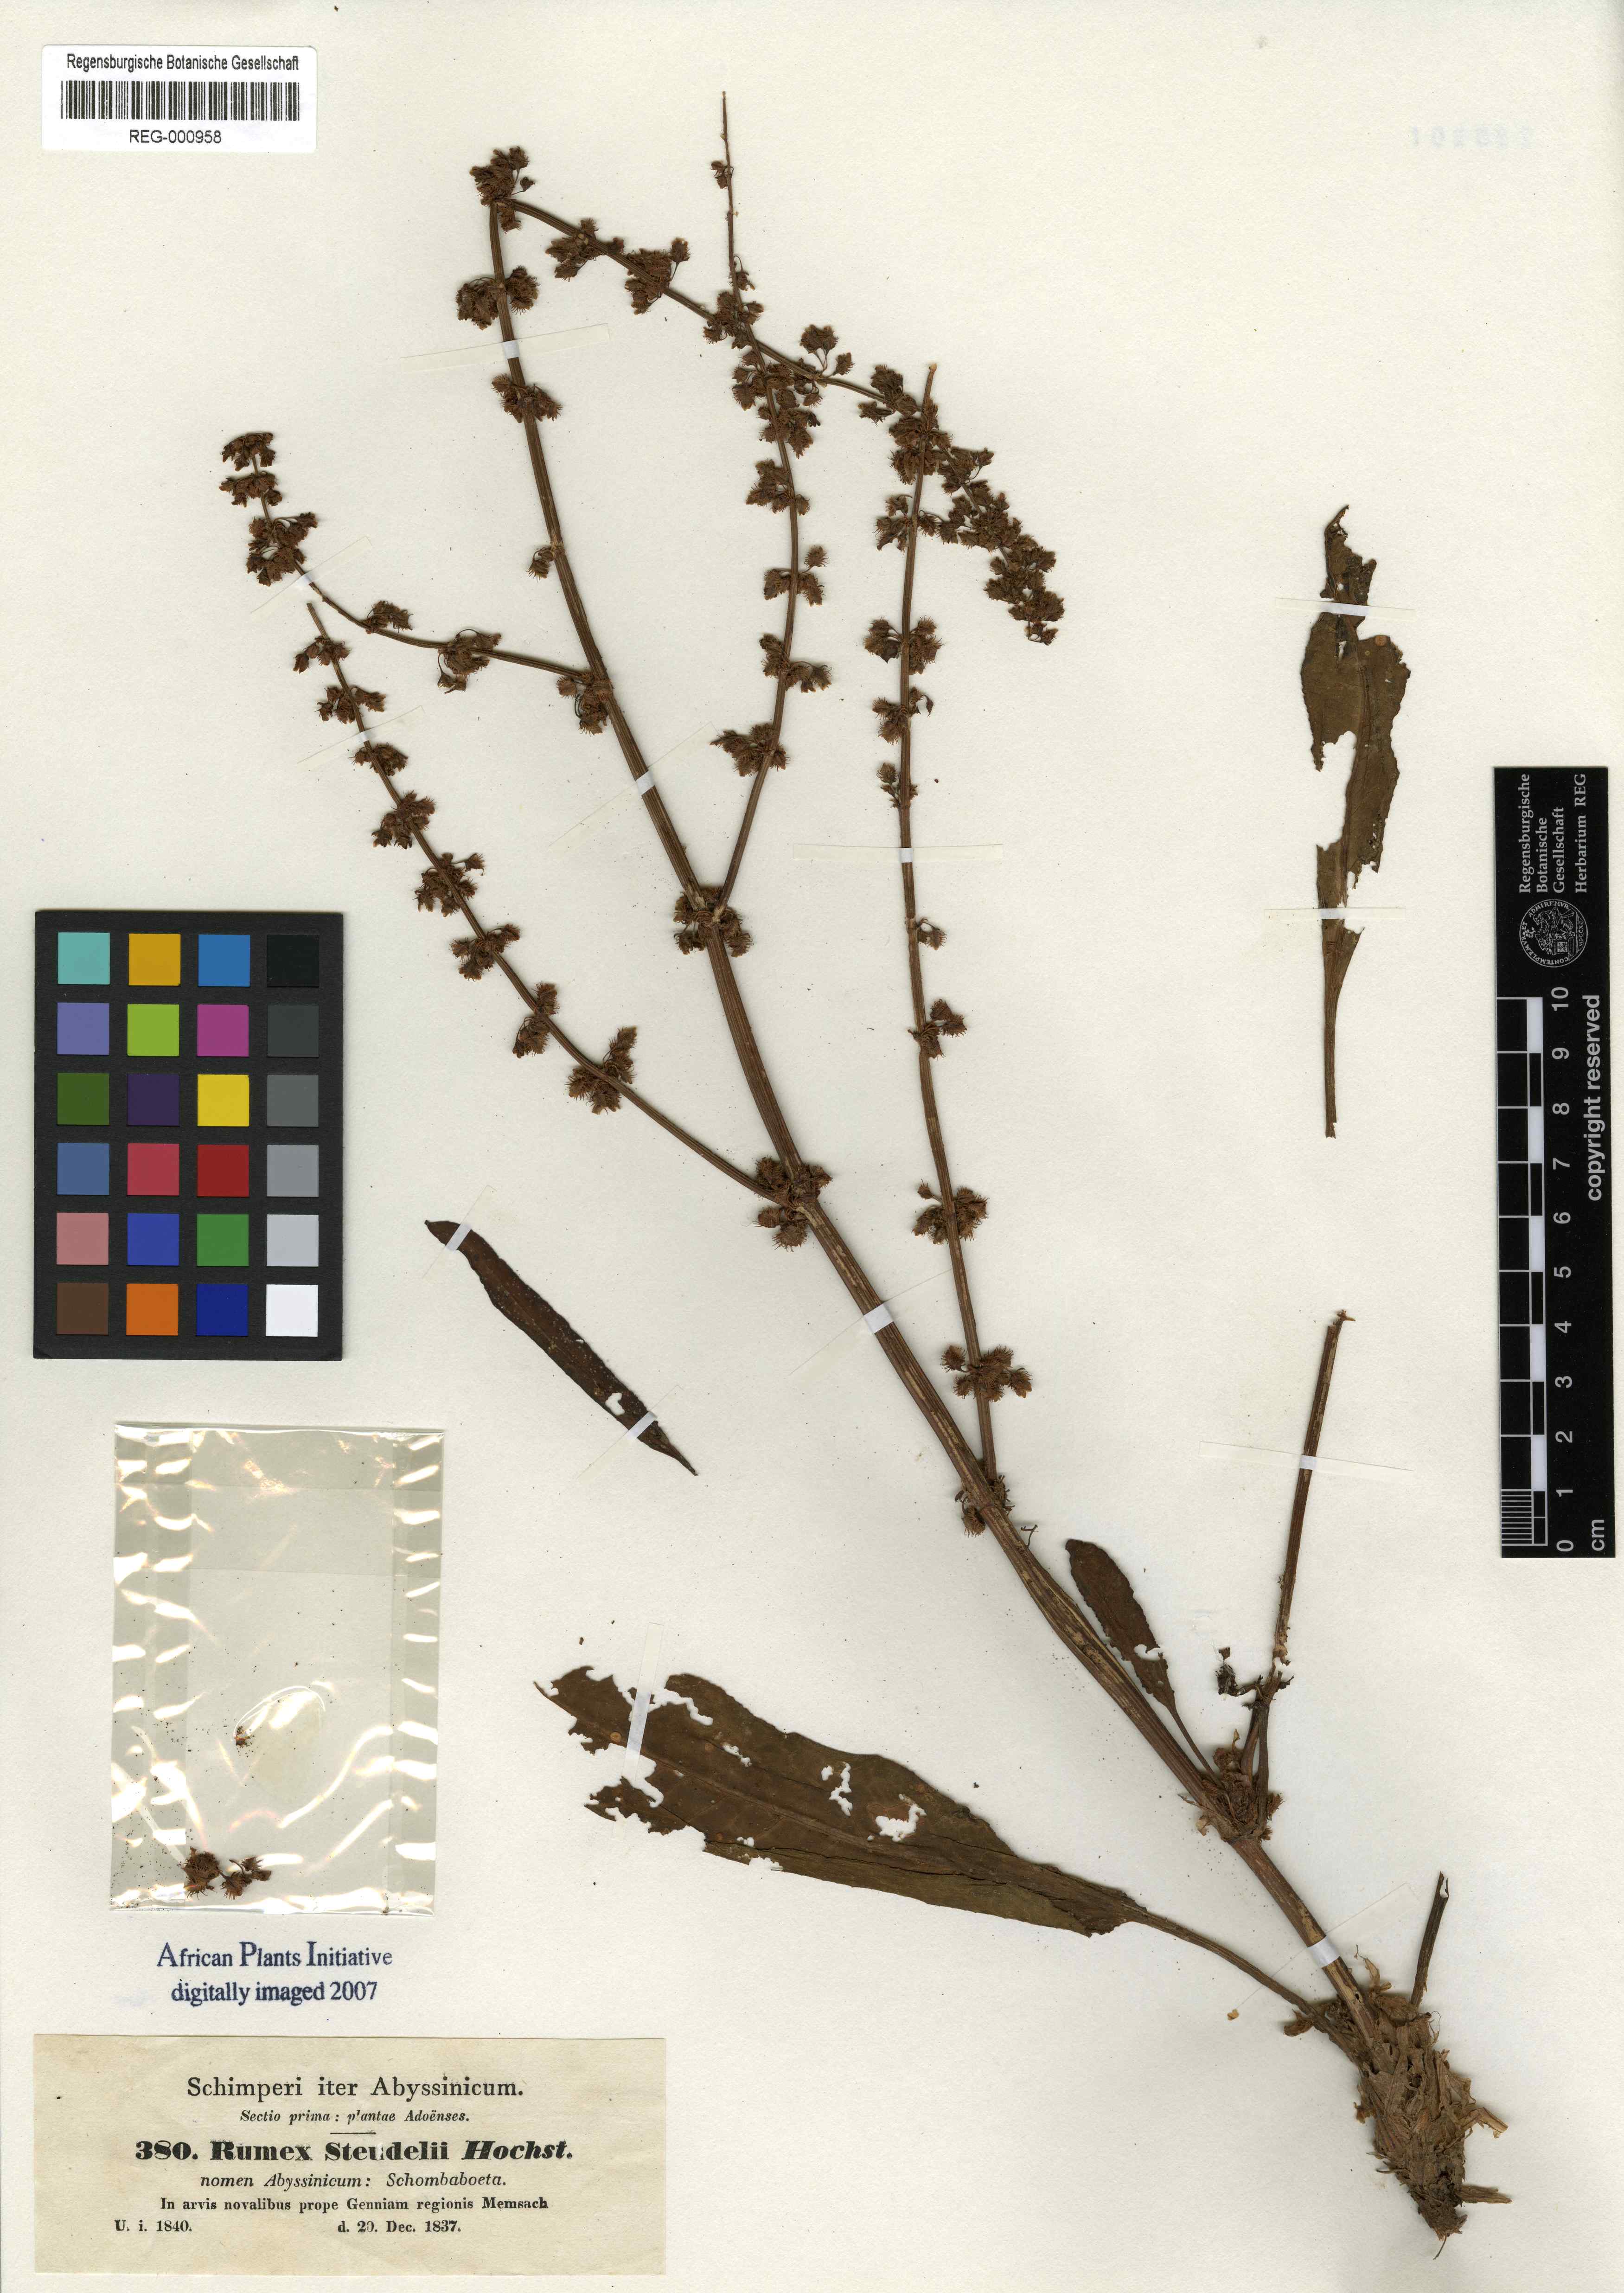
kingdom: Plantae
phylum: Tracheophyta
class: Magnoliopsida
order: Caryophyllales
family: Polygonaceae
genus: Rumex
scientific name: Rumex nepalensis
